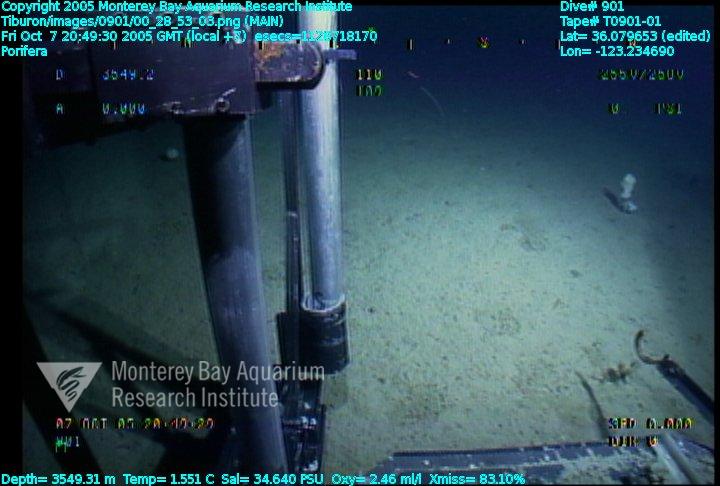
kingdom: Animalia
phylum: Porifera
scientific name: Porifera
